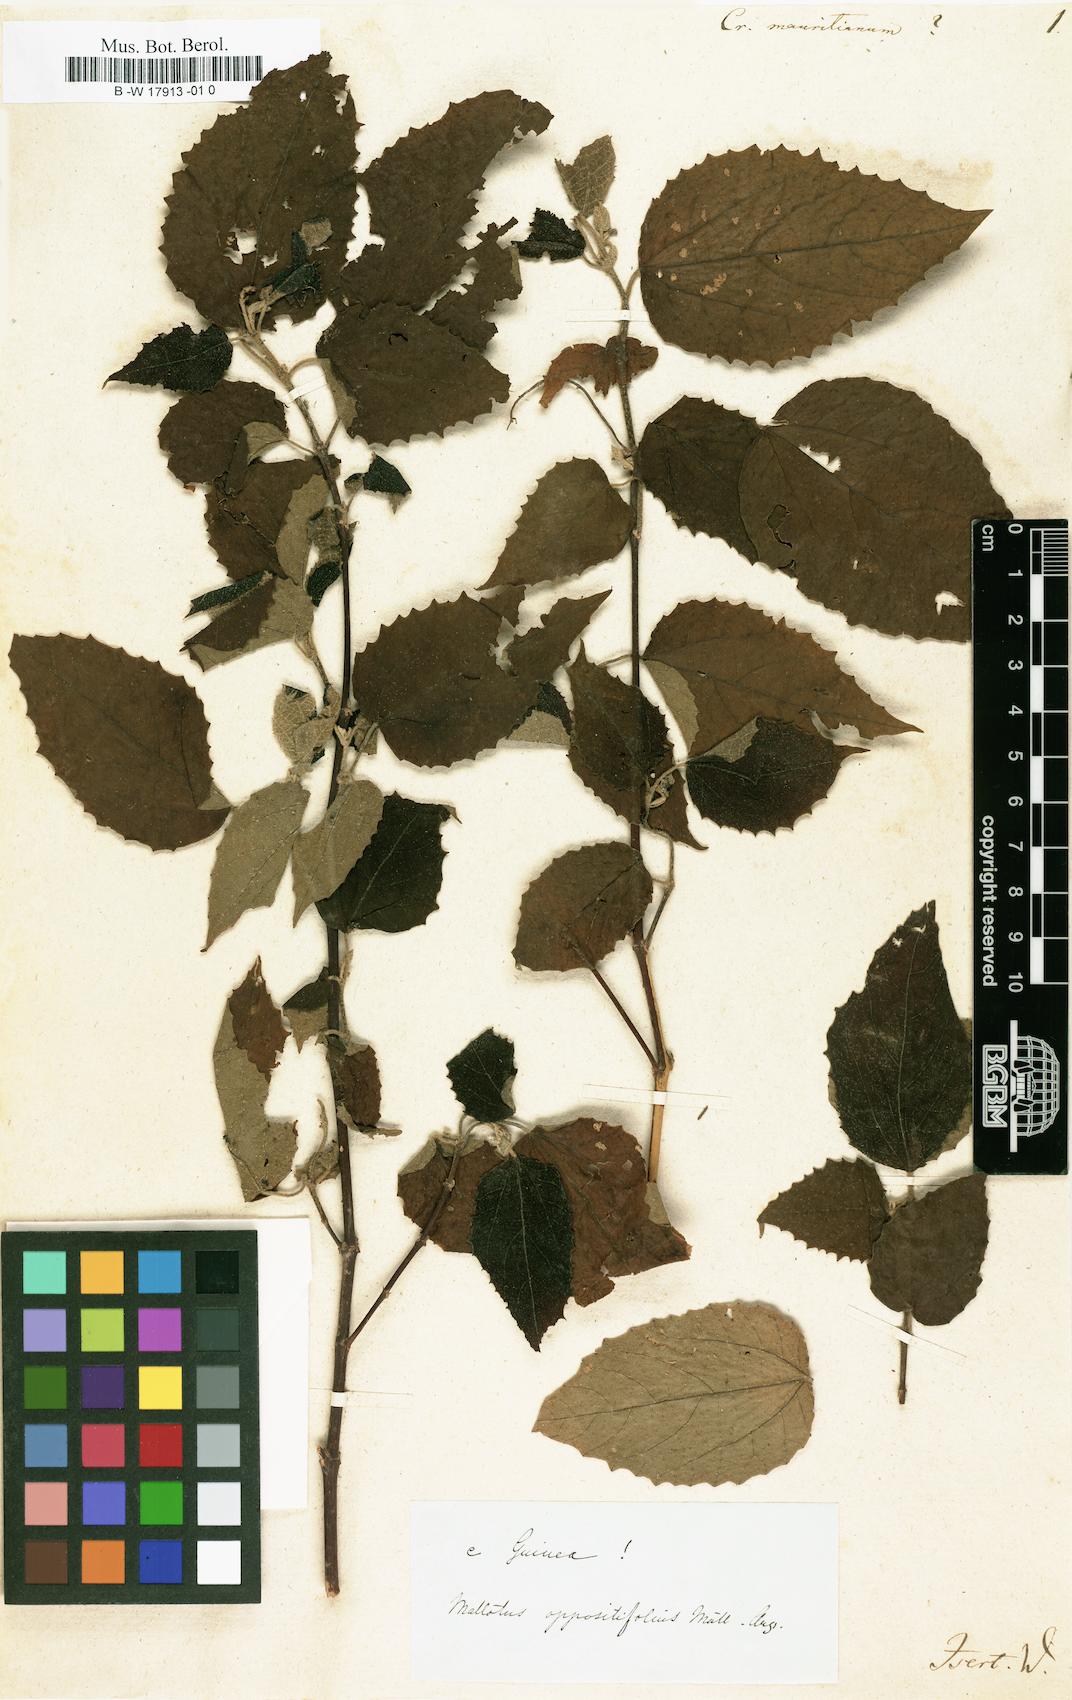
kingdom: Plantae
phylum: Tracheophyta
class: Magnoliopsida
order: Malpighiales
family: Euphorbiaceae
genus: Croton
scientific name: Croton mauritianus
